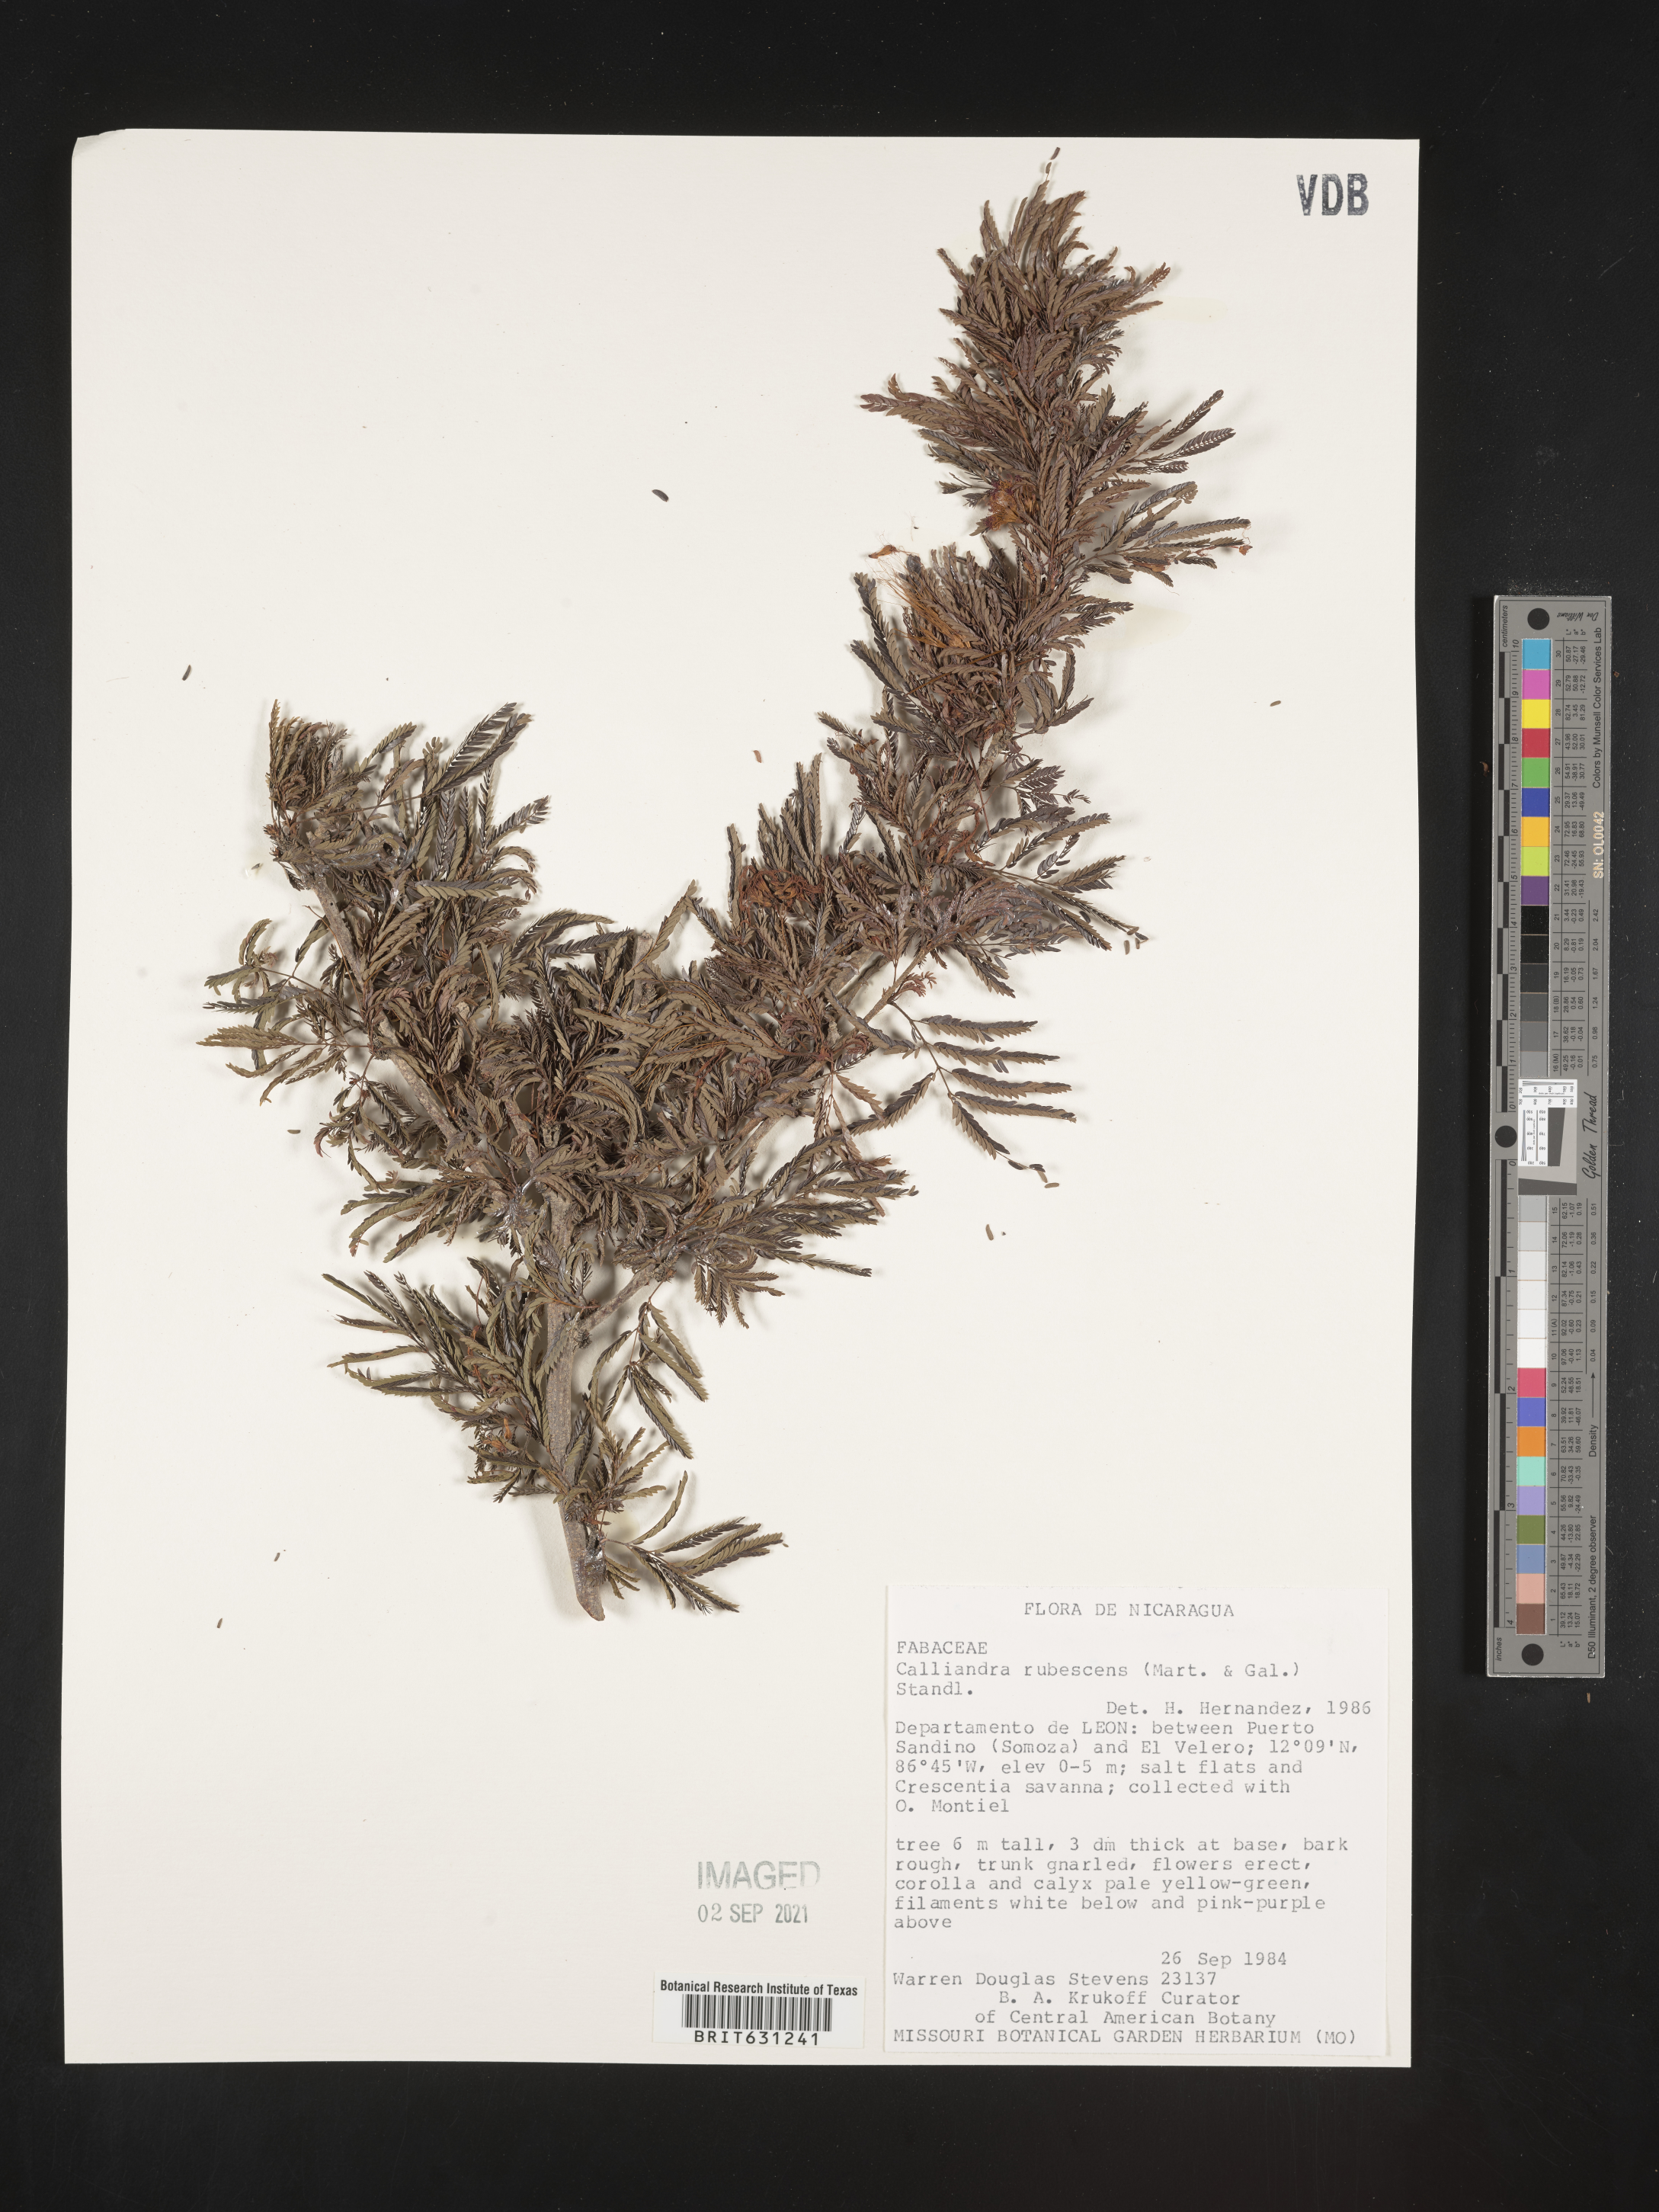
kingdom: Plantae
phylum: Tracheophyta
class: Magnoliopsida
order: Fabales
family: Fabaceae
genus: Calliandra
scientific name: Calliandra rubescens
